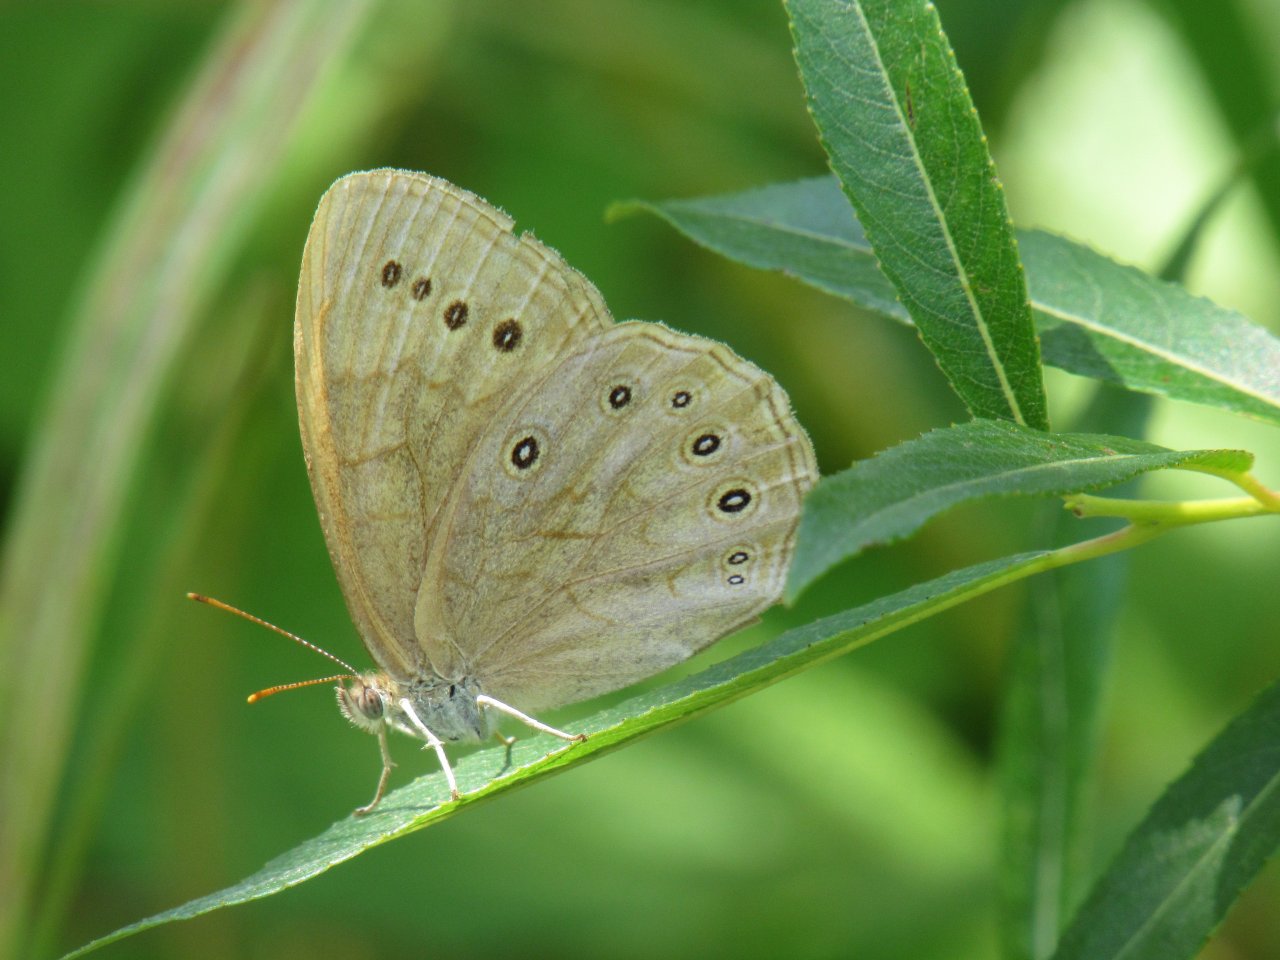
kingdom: Animalia
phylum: Arthropoda
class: Insecta
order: Lepidoptera
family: Nymphalidae
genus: Lethe
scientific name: Lethe eurydice
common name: Eyed Brown
